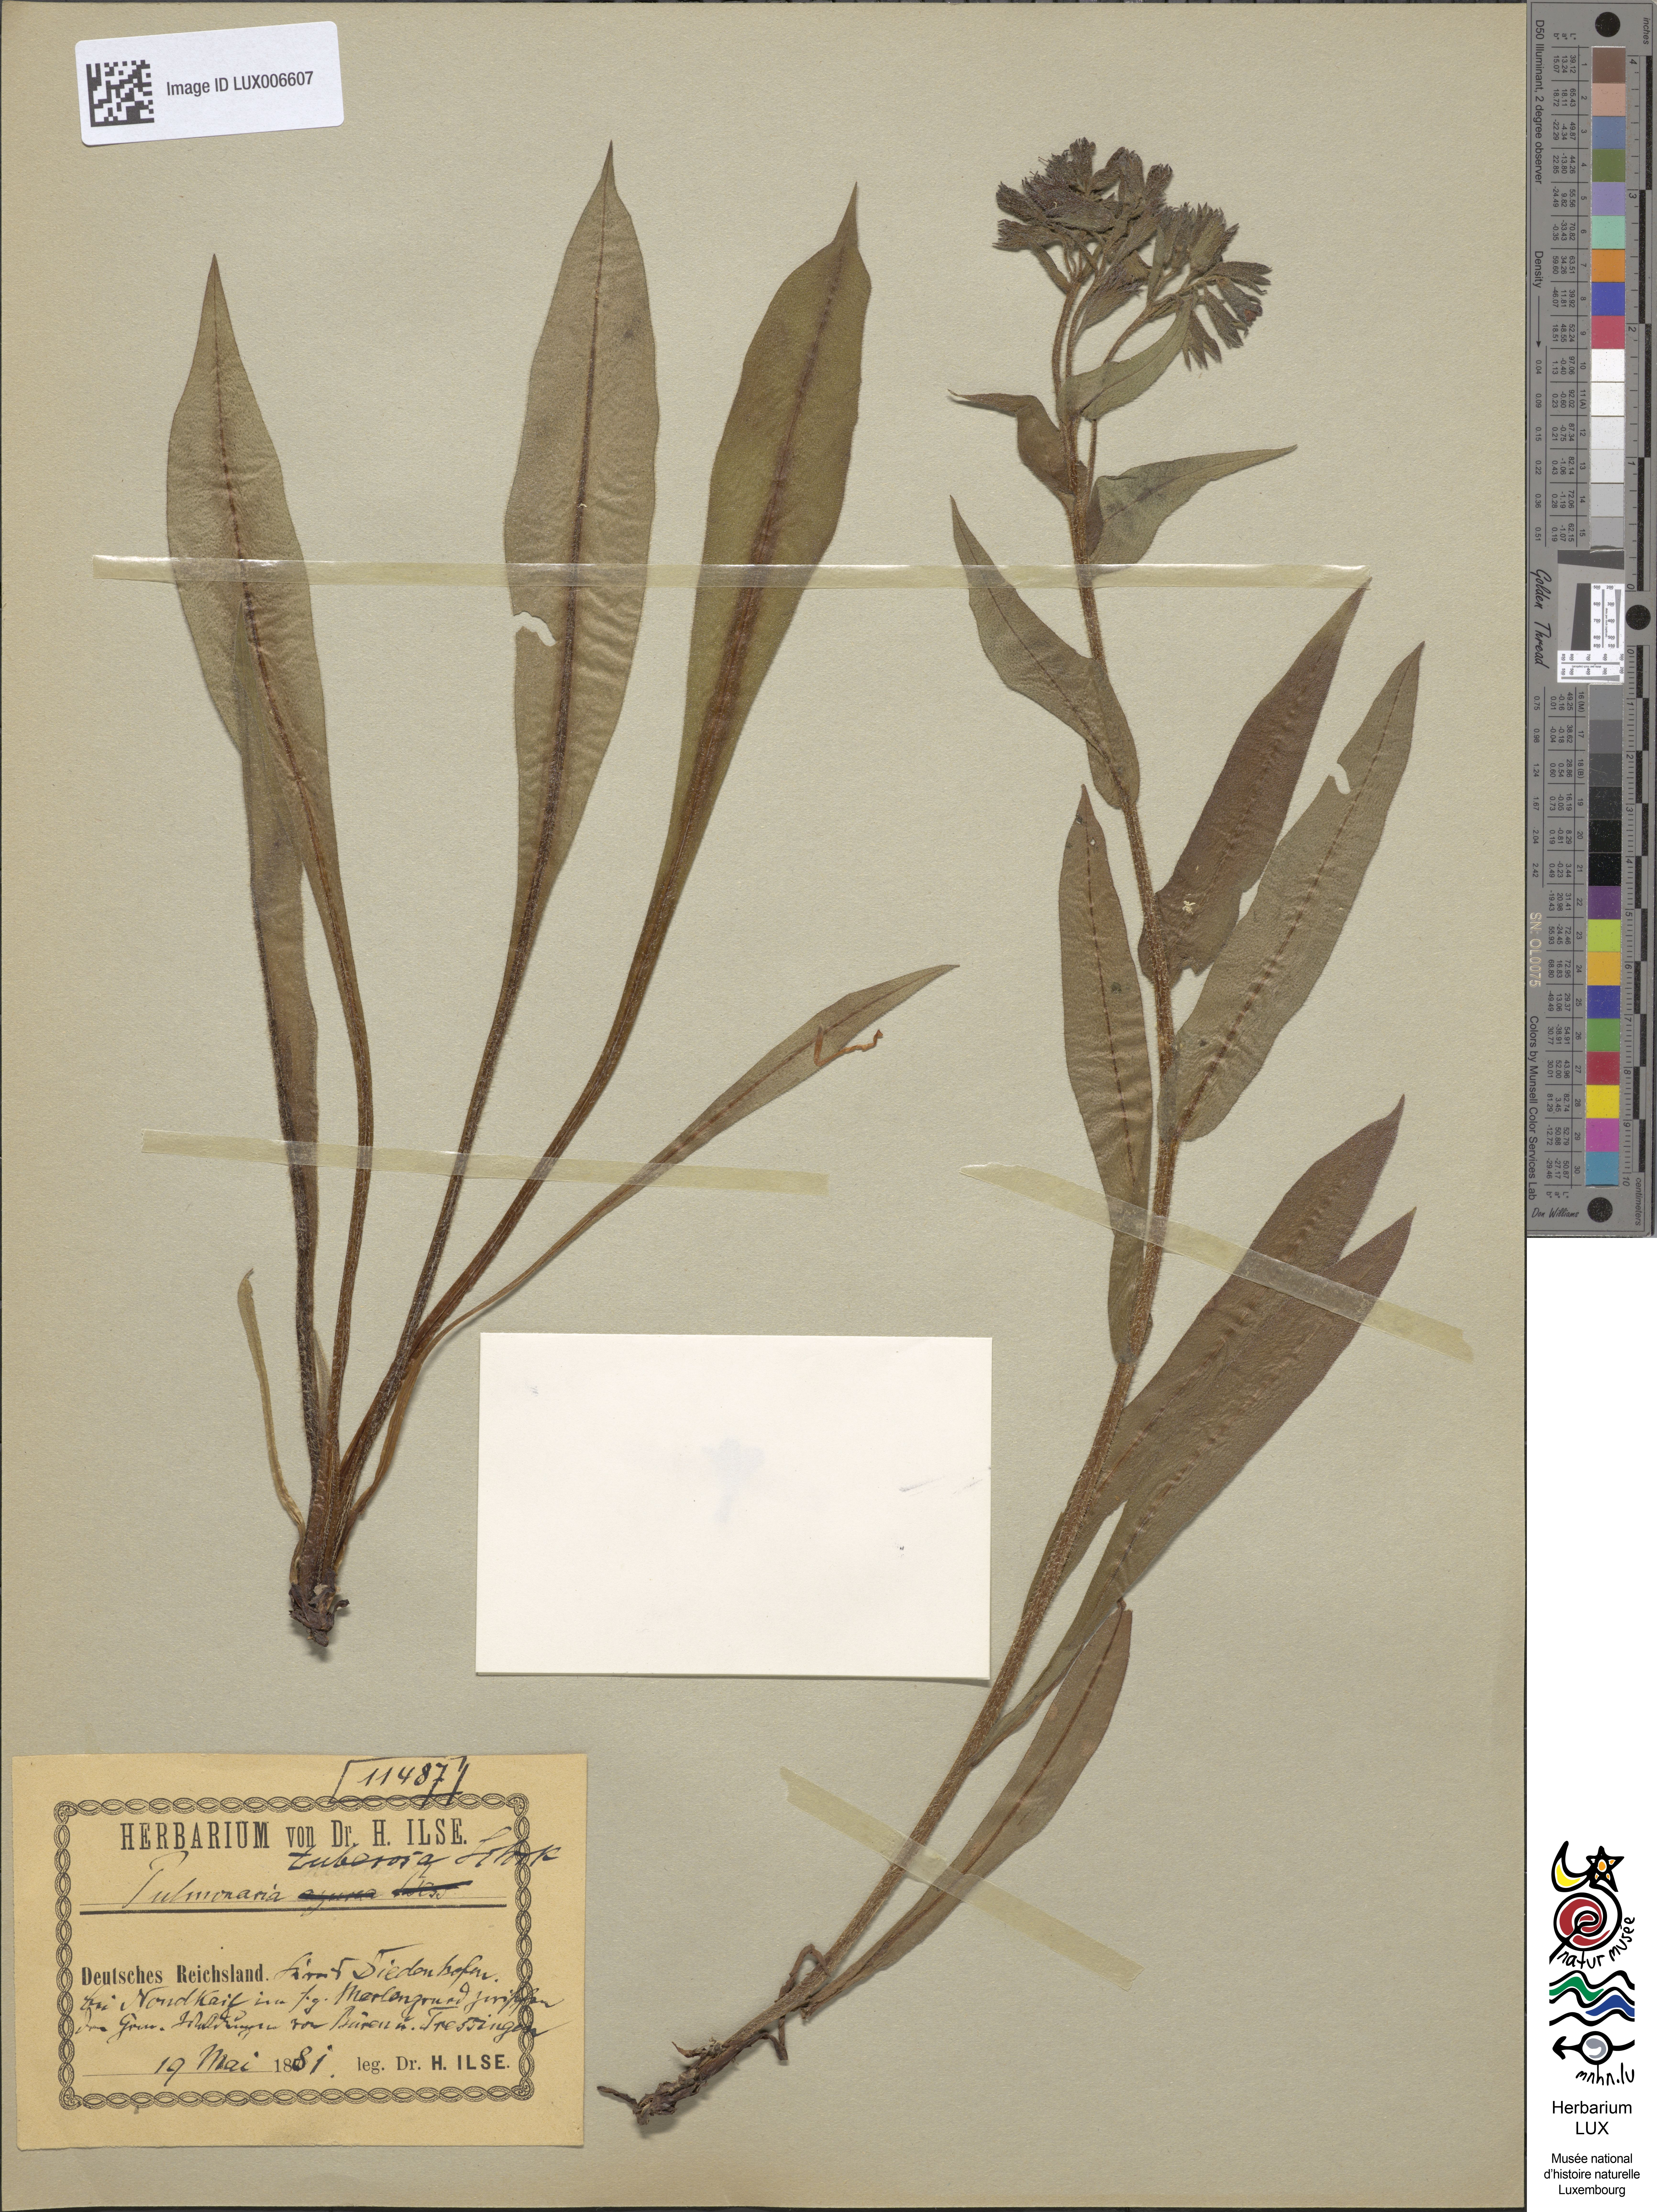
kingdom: Plantae
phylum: Tracheophyta
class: Magnoliopsida
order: Boraginales
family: Boraginaceae
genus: Pulmonaria
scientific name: Pulmonaria montana
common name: Mountain lungwort
